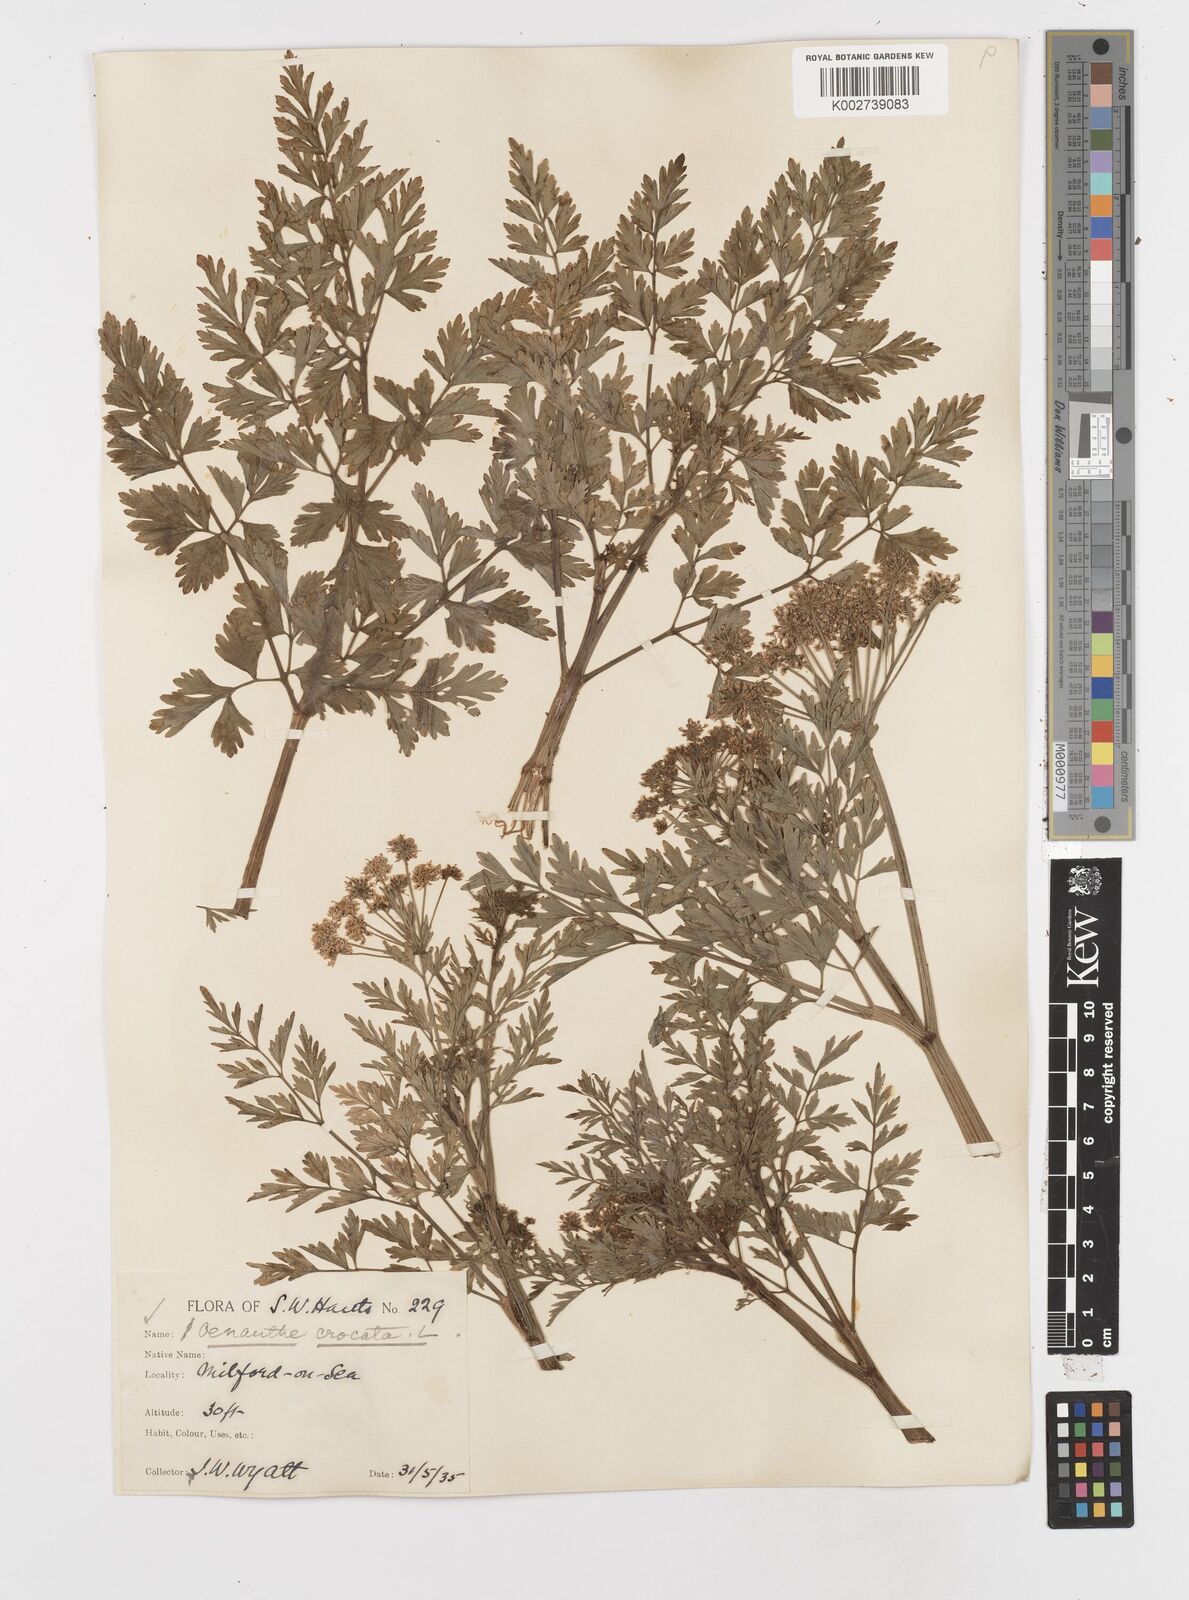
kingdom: Plantae
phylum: Tracheophyta
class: Magnoliopsida
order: Apiales
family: Apiaceae
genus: Oenanthe
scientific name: Oenanthe crocata
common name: Hemlock water-dropwort
